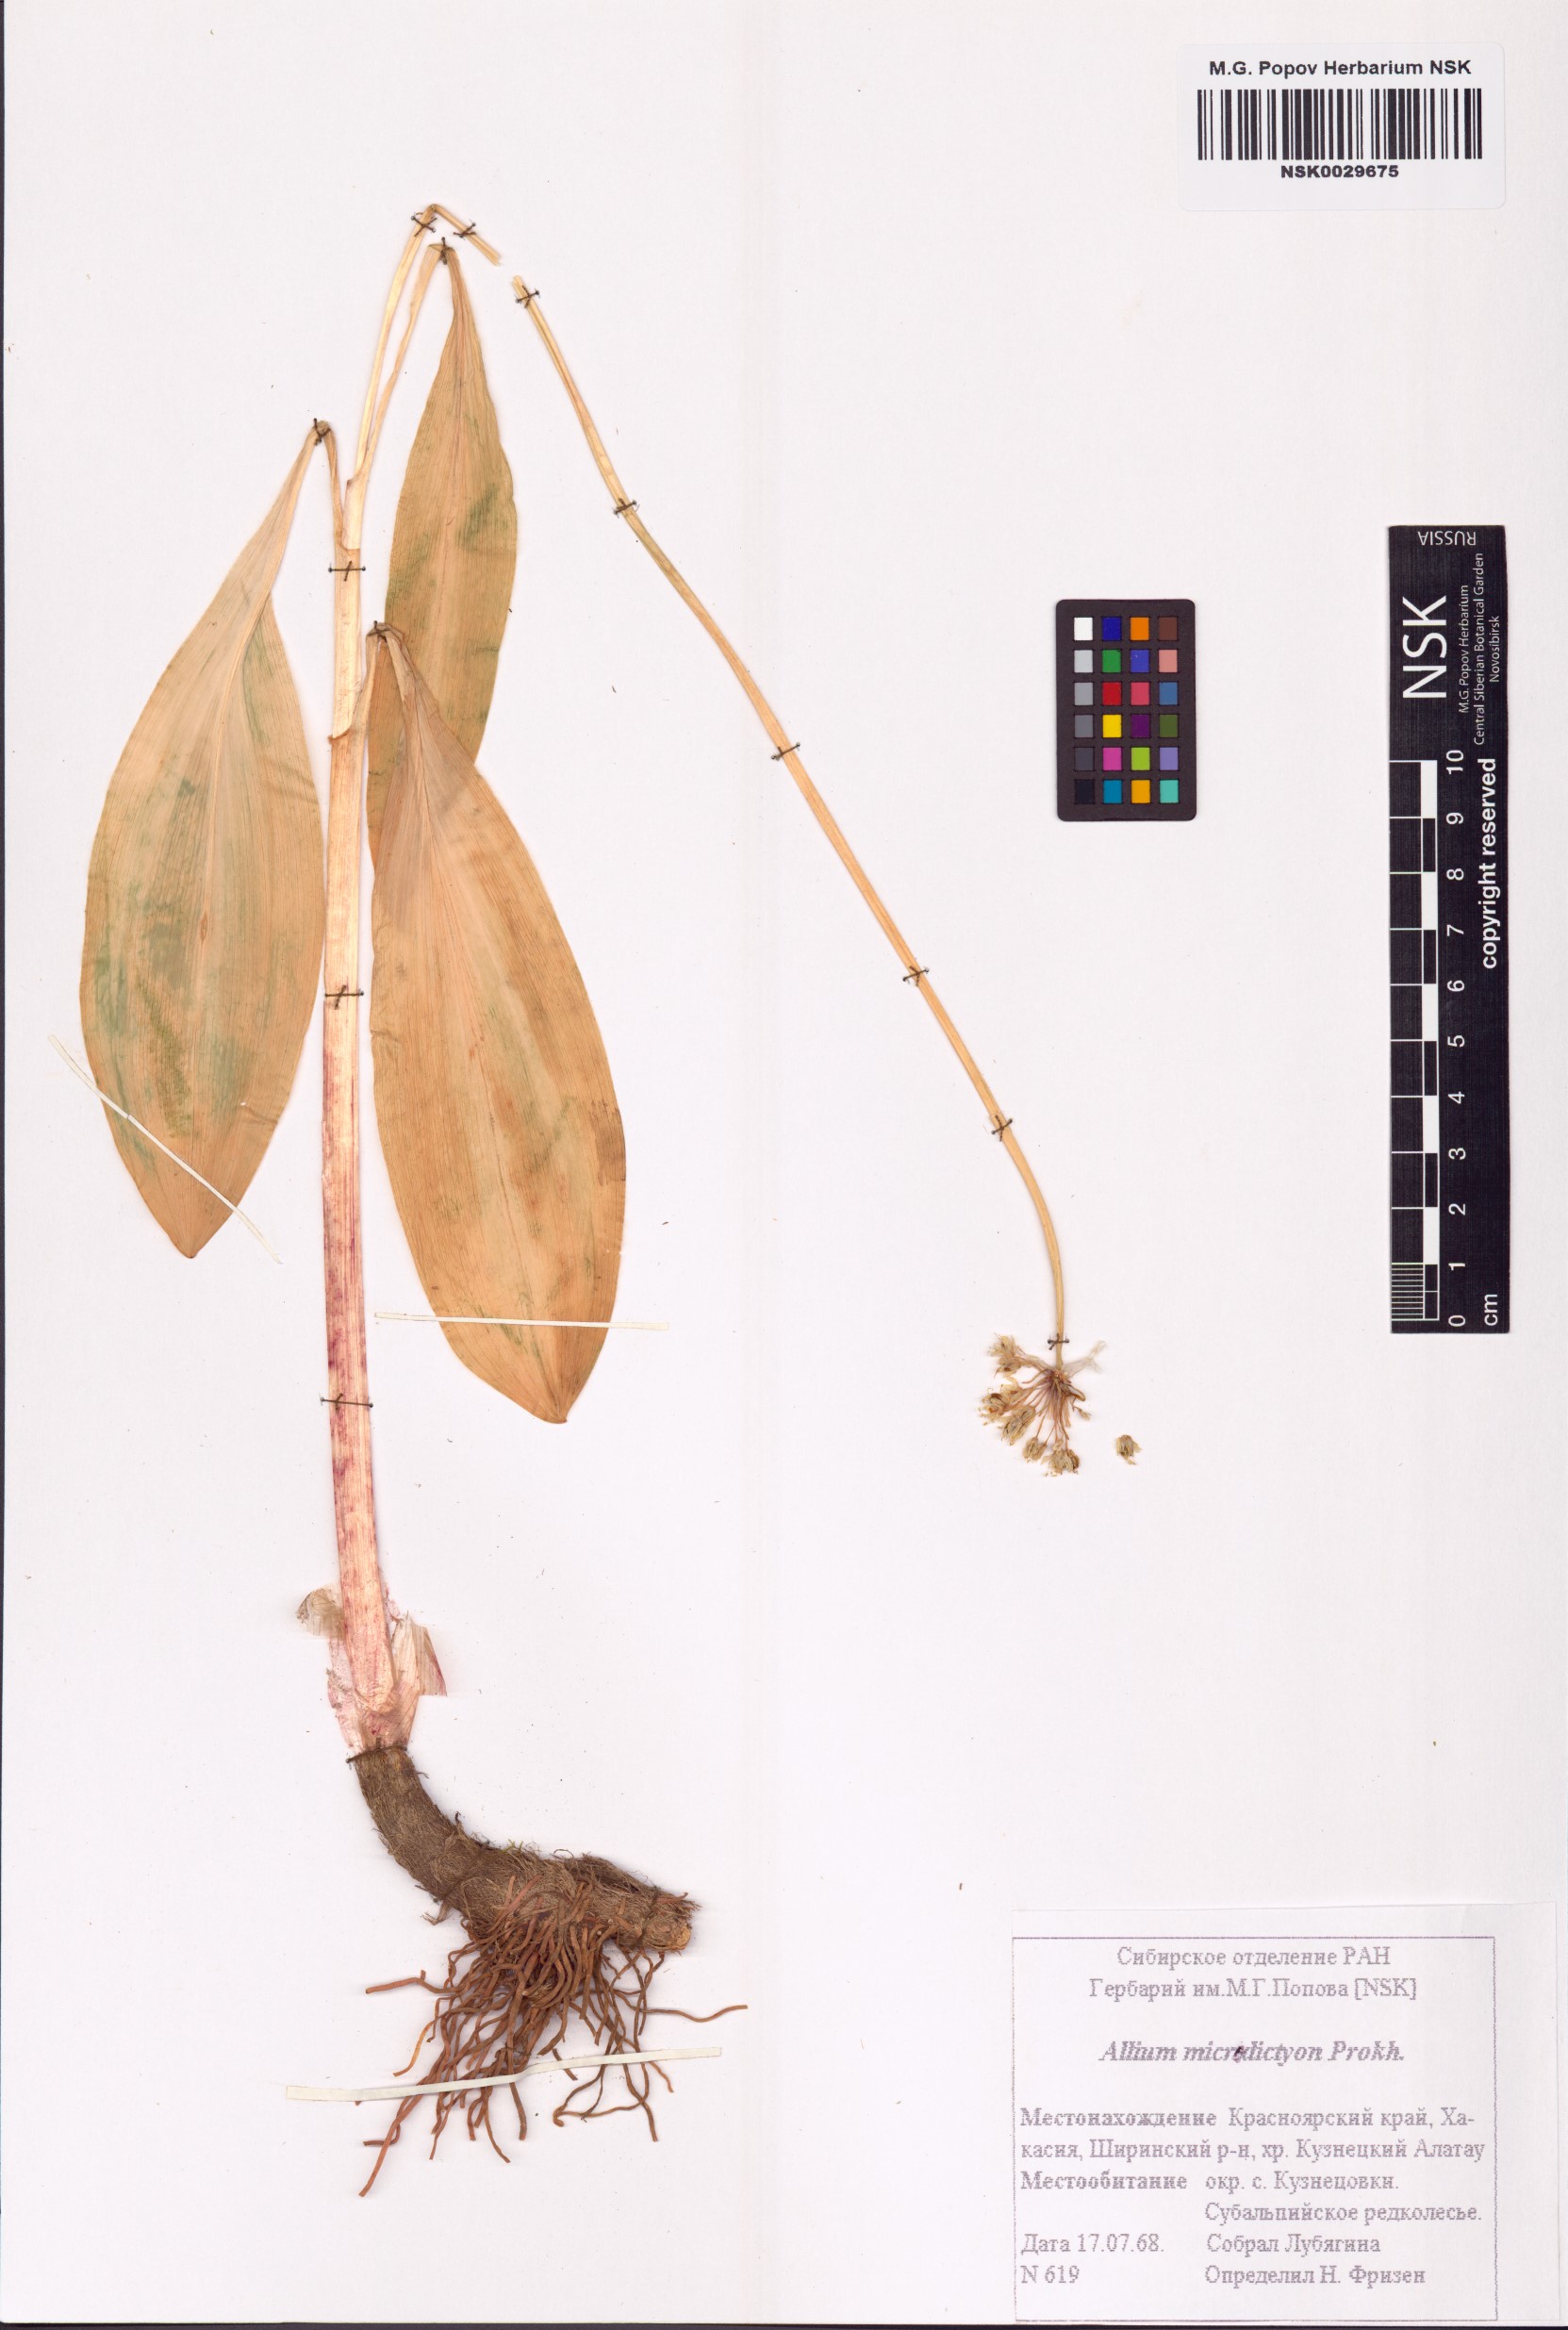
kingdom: Plantae
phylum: Tracheophyta
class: Liliopsida
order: Asparagales
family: Amaryllidaceae
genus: Allium
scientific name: Allium microdictyon
